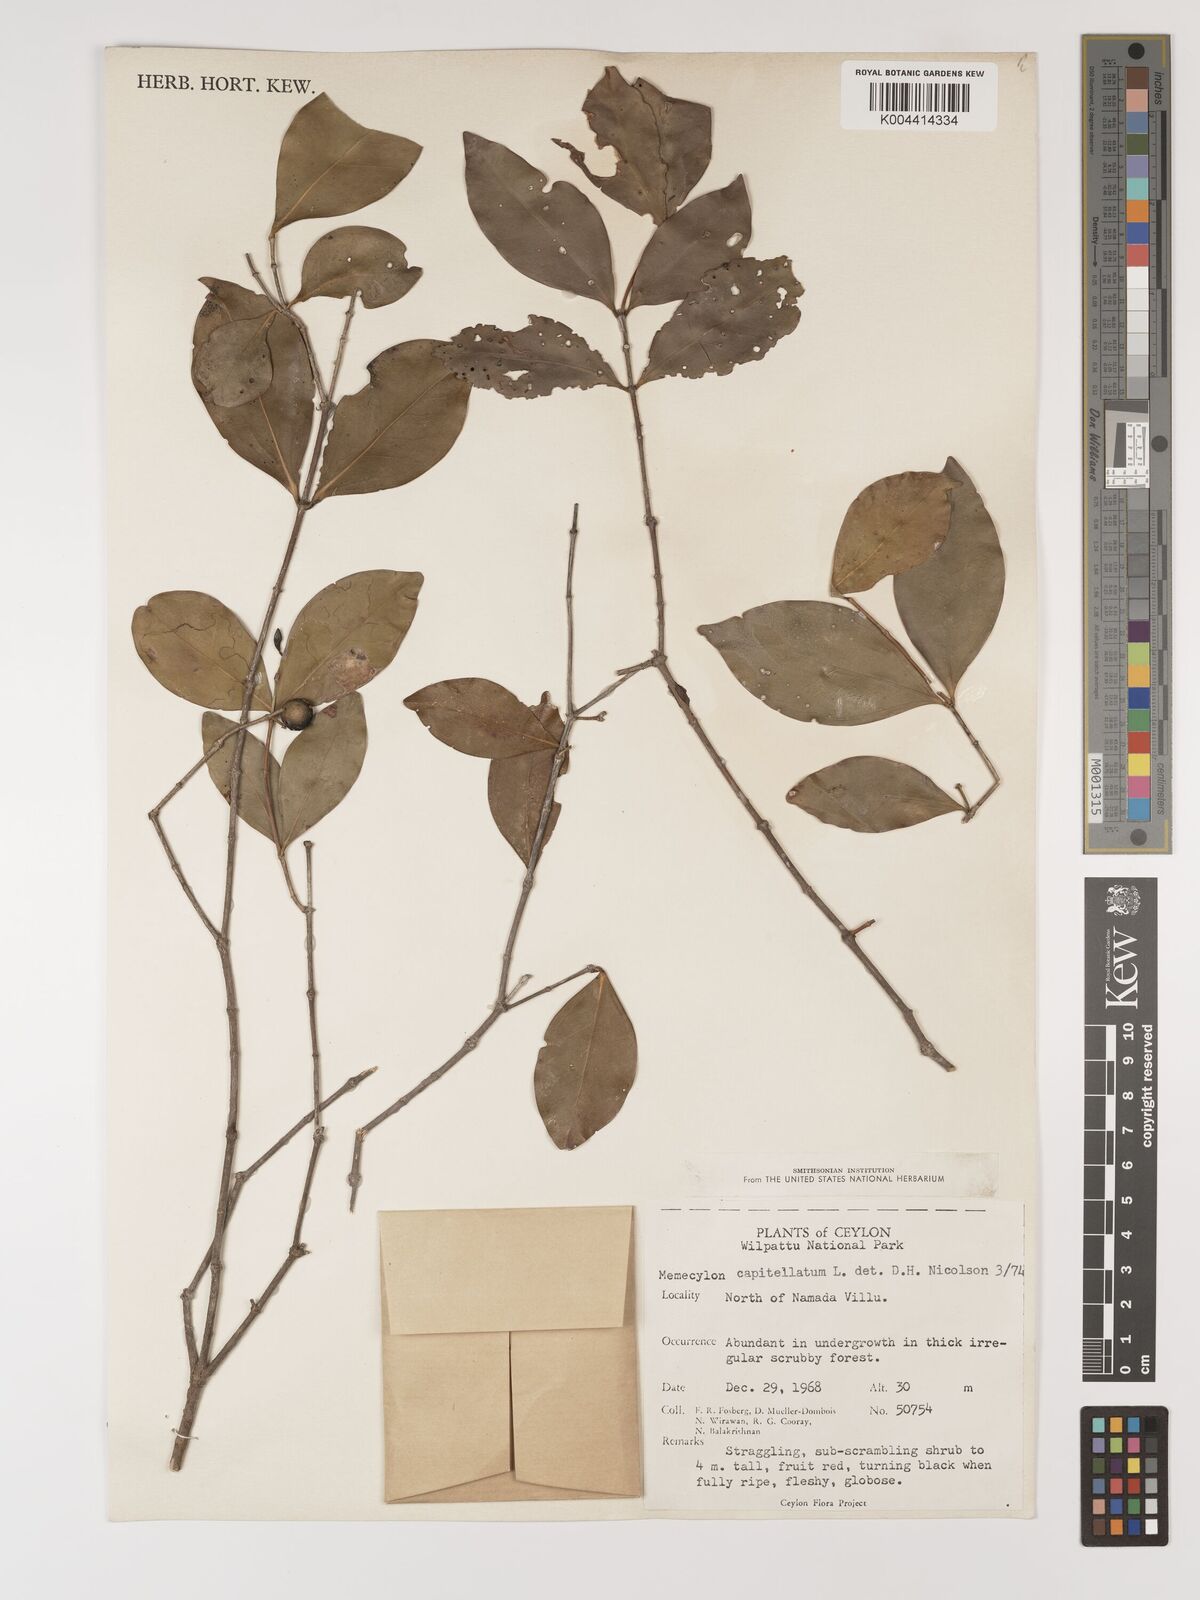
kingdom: Plantae
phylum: Tracheophyta
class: Magnoliopsida
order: Myrtales
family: Melastomataceae
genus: Memecylon
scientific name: Memecylon capitellatum
